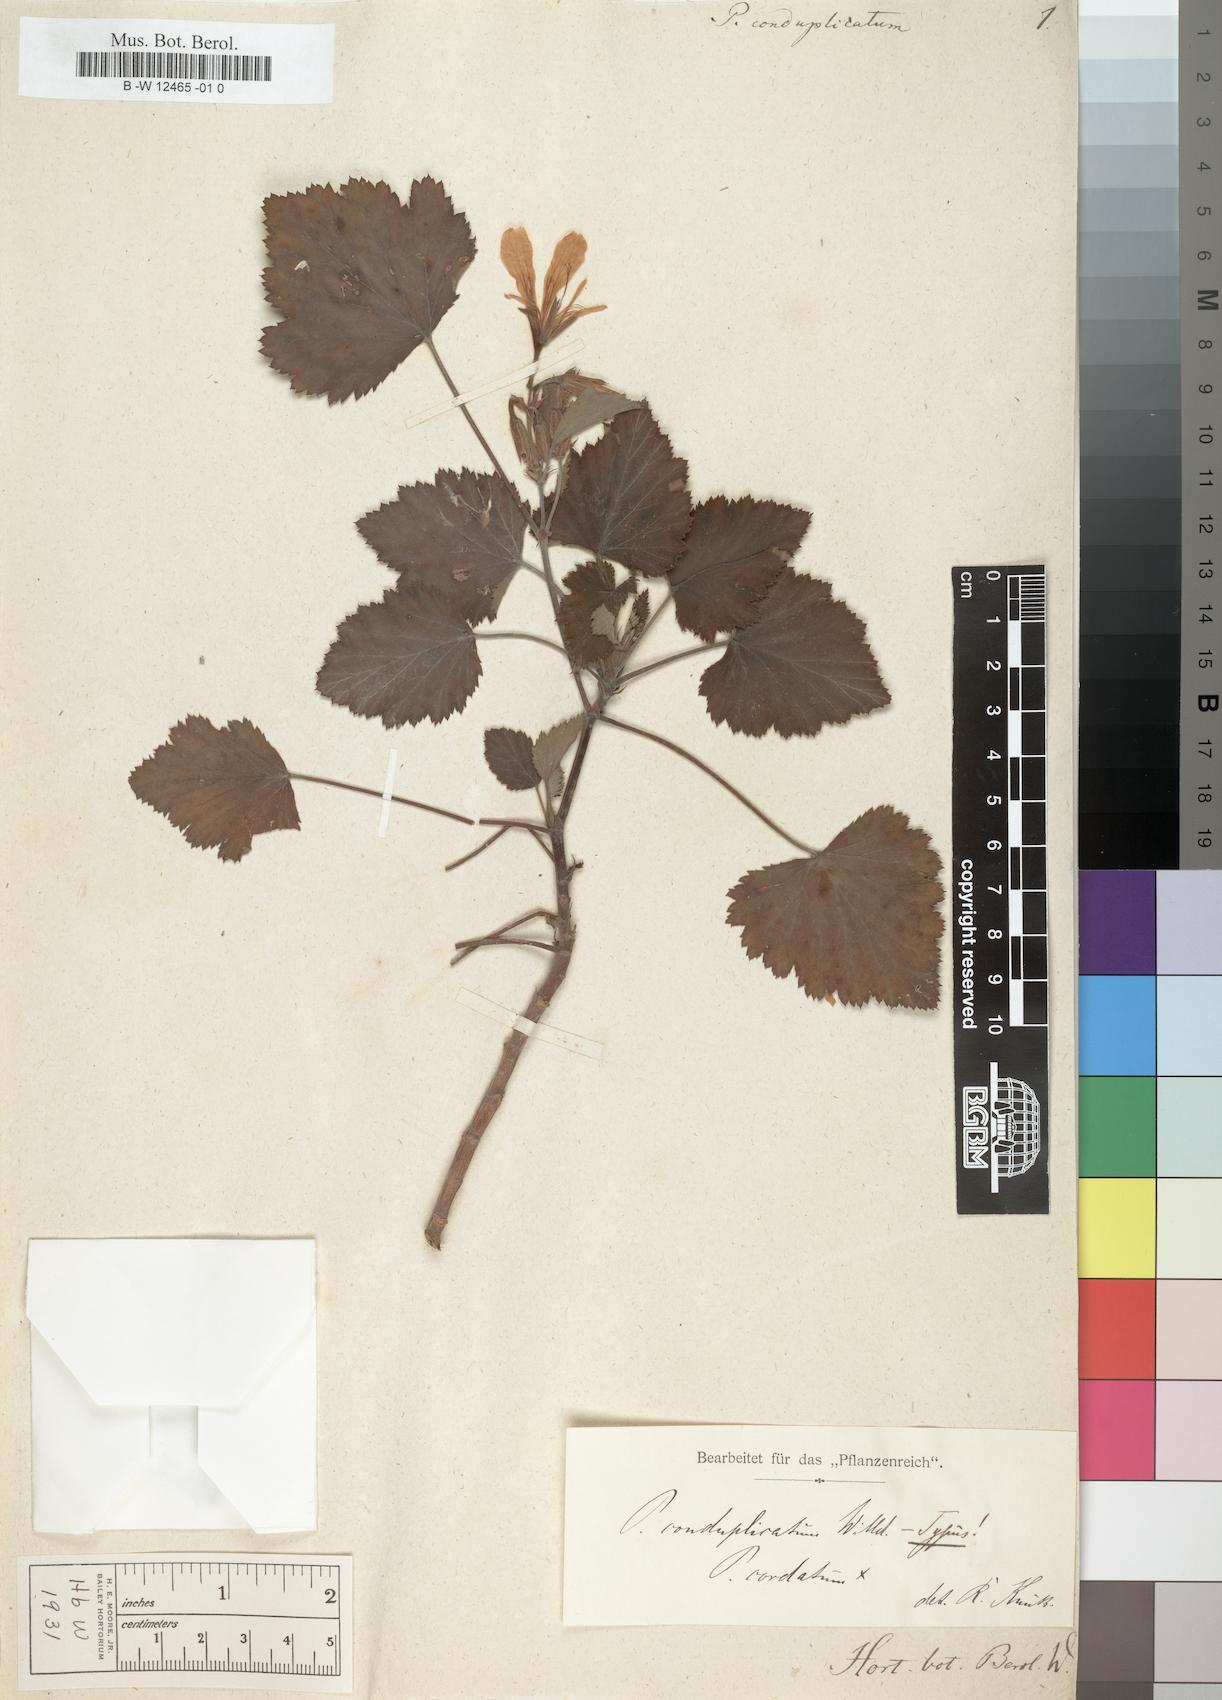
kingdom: Plantae
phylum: Tracheophyta
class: Magnoliopsida
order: Geraniales
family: Geraniaceae
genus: Pelargonium
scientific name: Pelargonium conduplicatum
